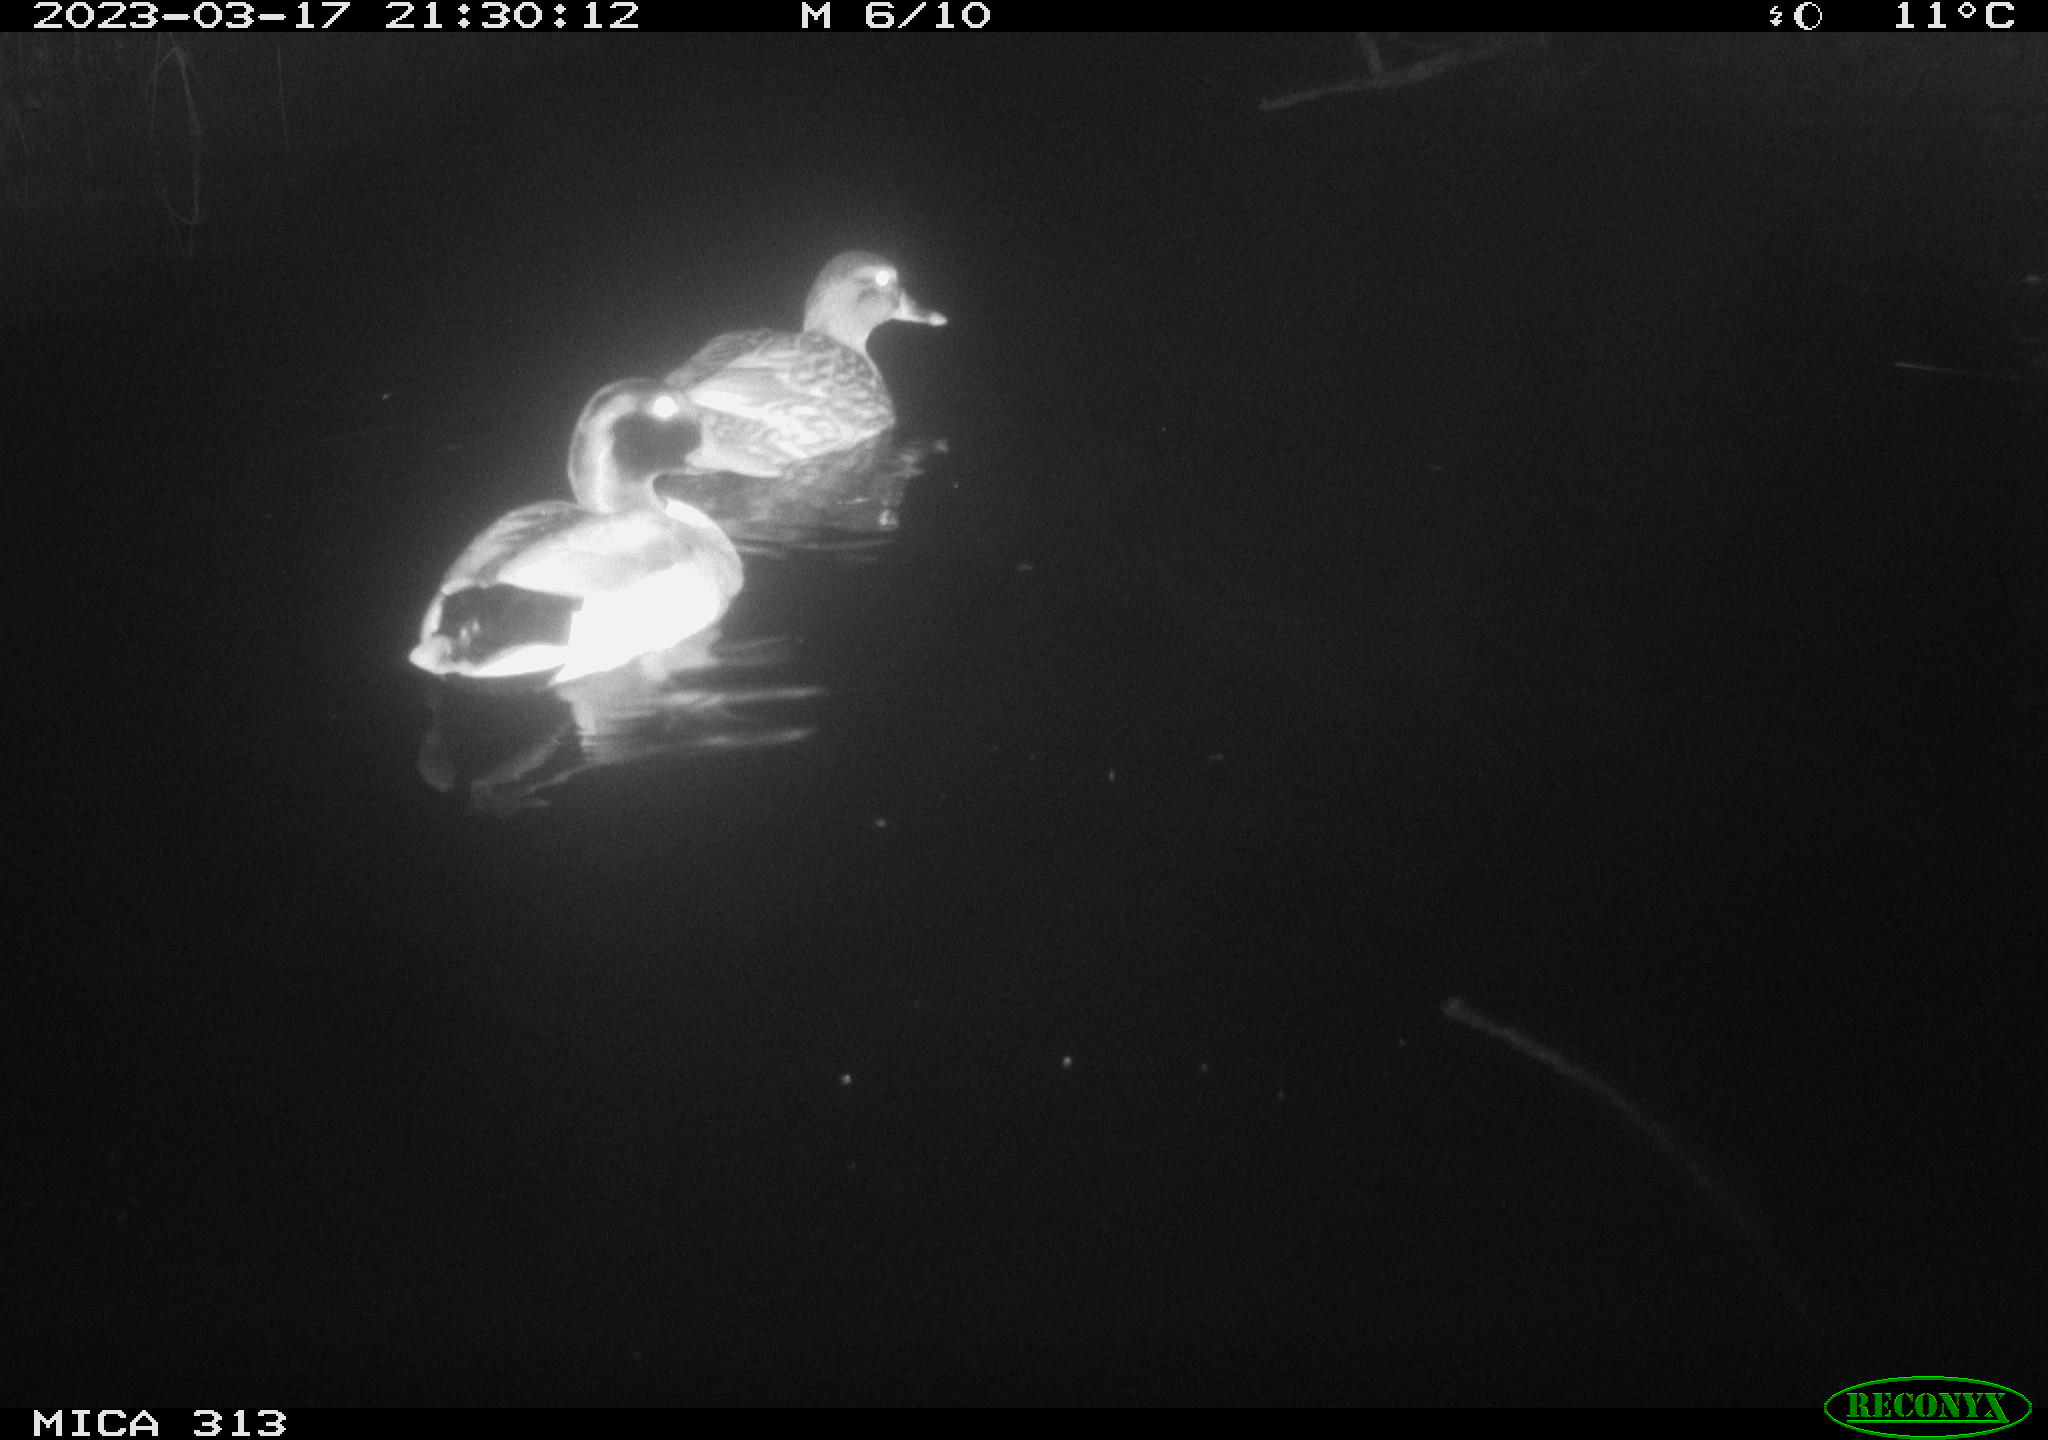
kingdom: Animalia
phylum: Chordata
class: Aves
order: Anseriformes
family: Anatidae
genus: Anas
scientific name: Anas
